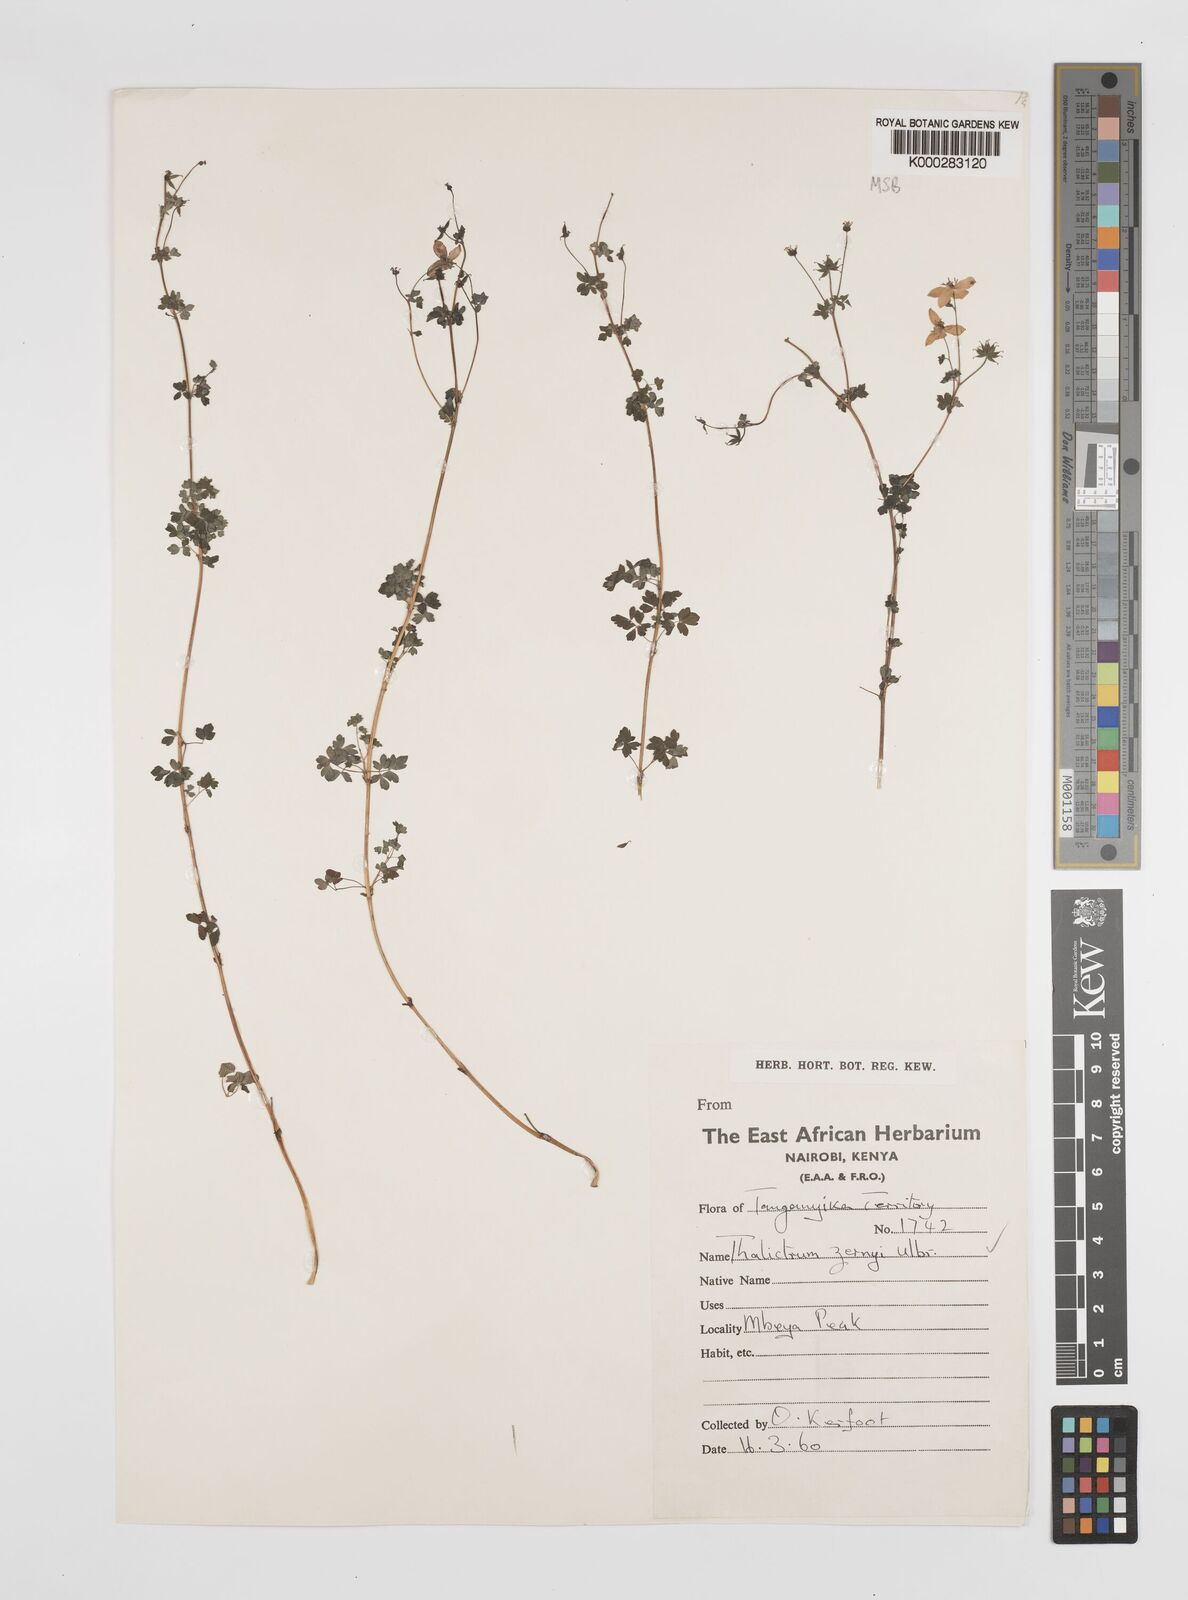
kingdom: Plantae
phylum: Tracheophyta
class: Magnoliopsida
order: Ranunculales
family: Ranunculaceae
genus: Thalictrum
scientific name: Thalictrum zernyi
